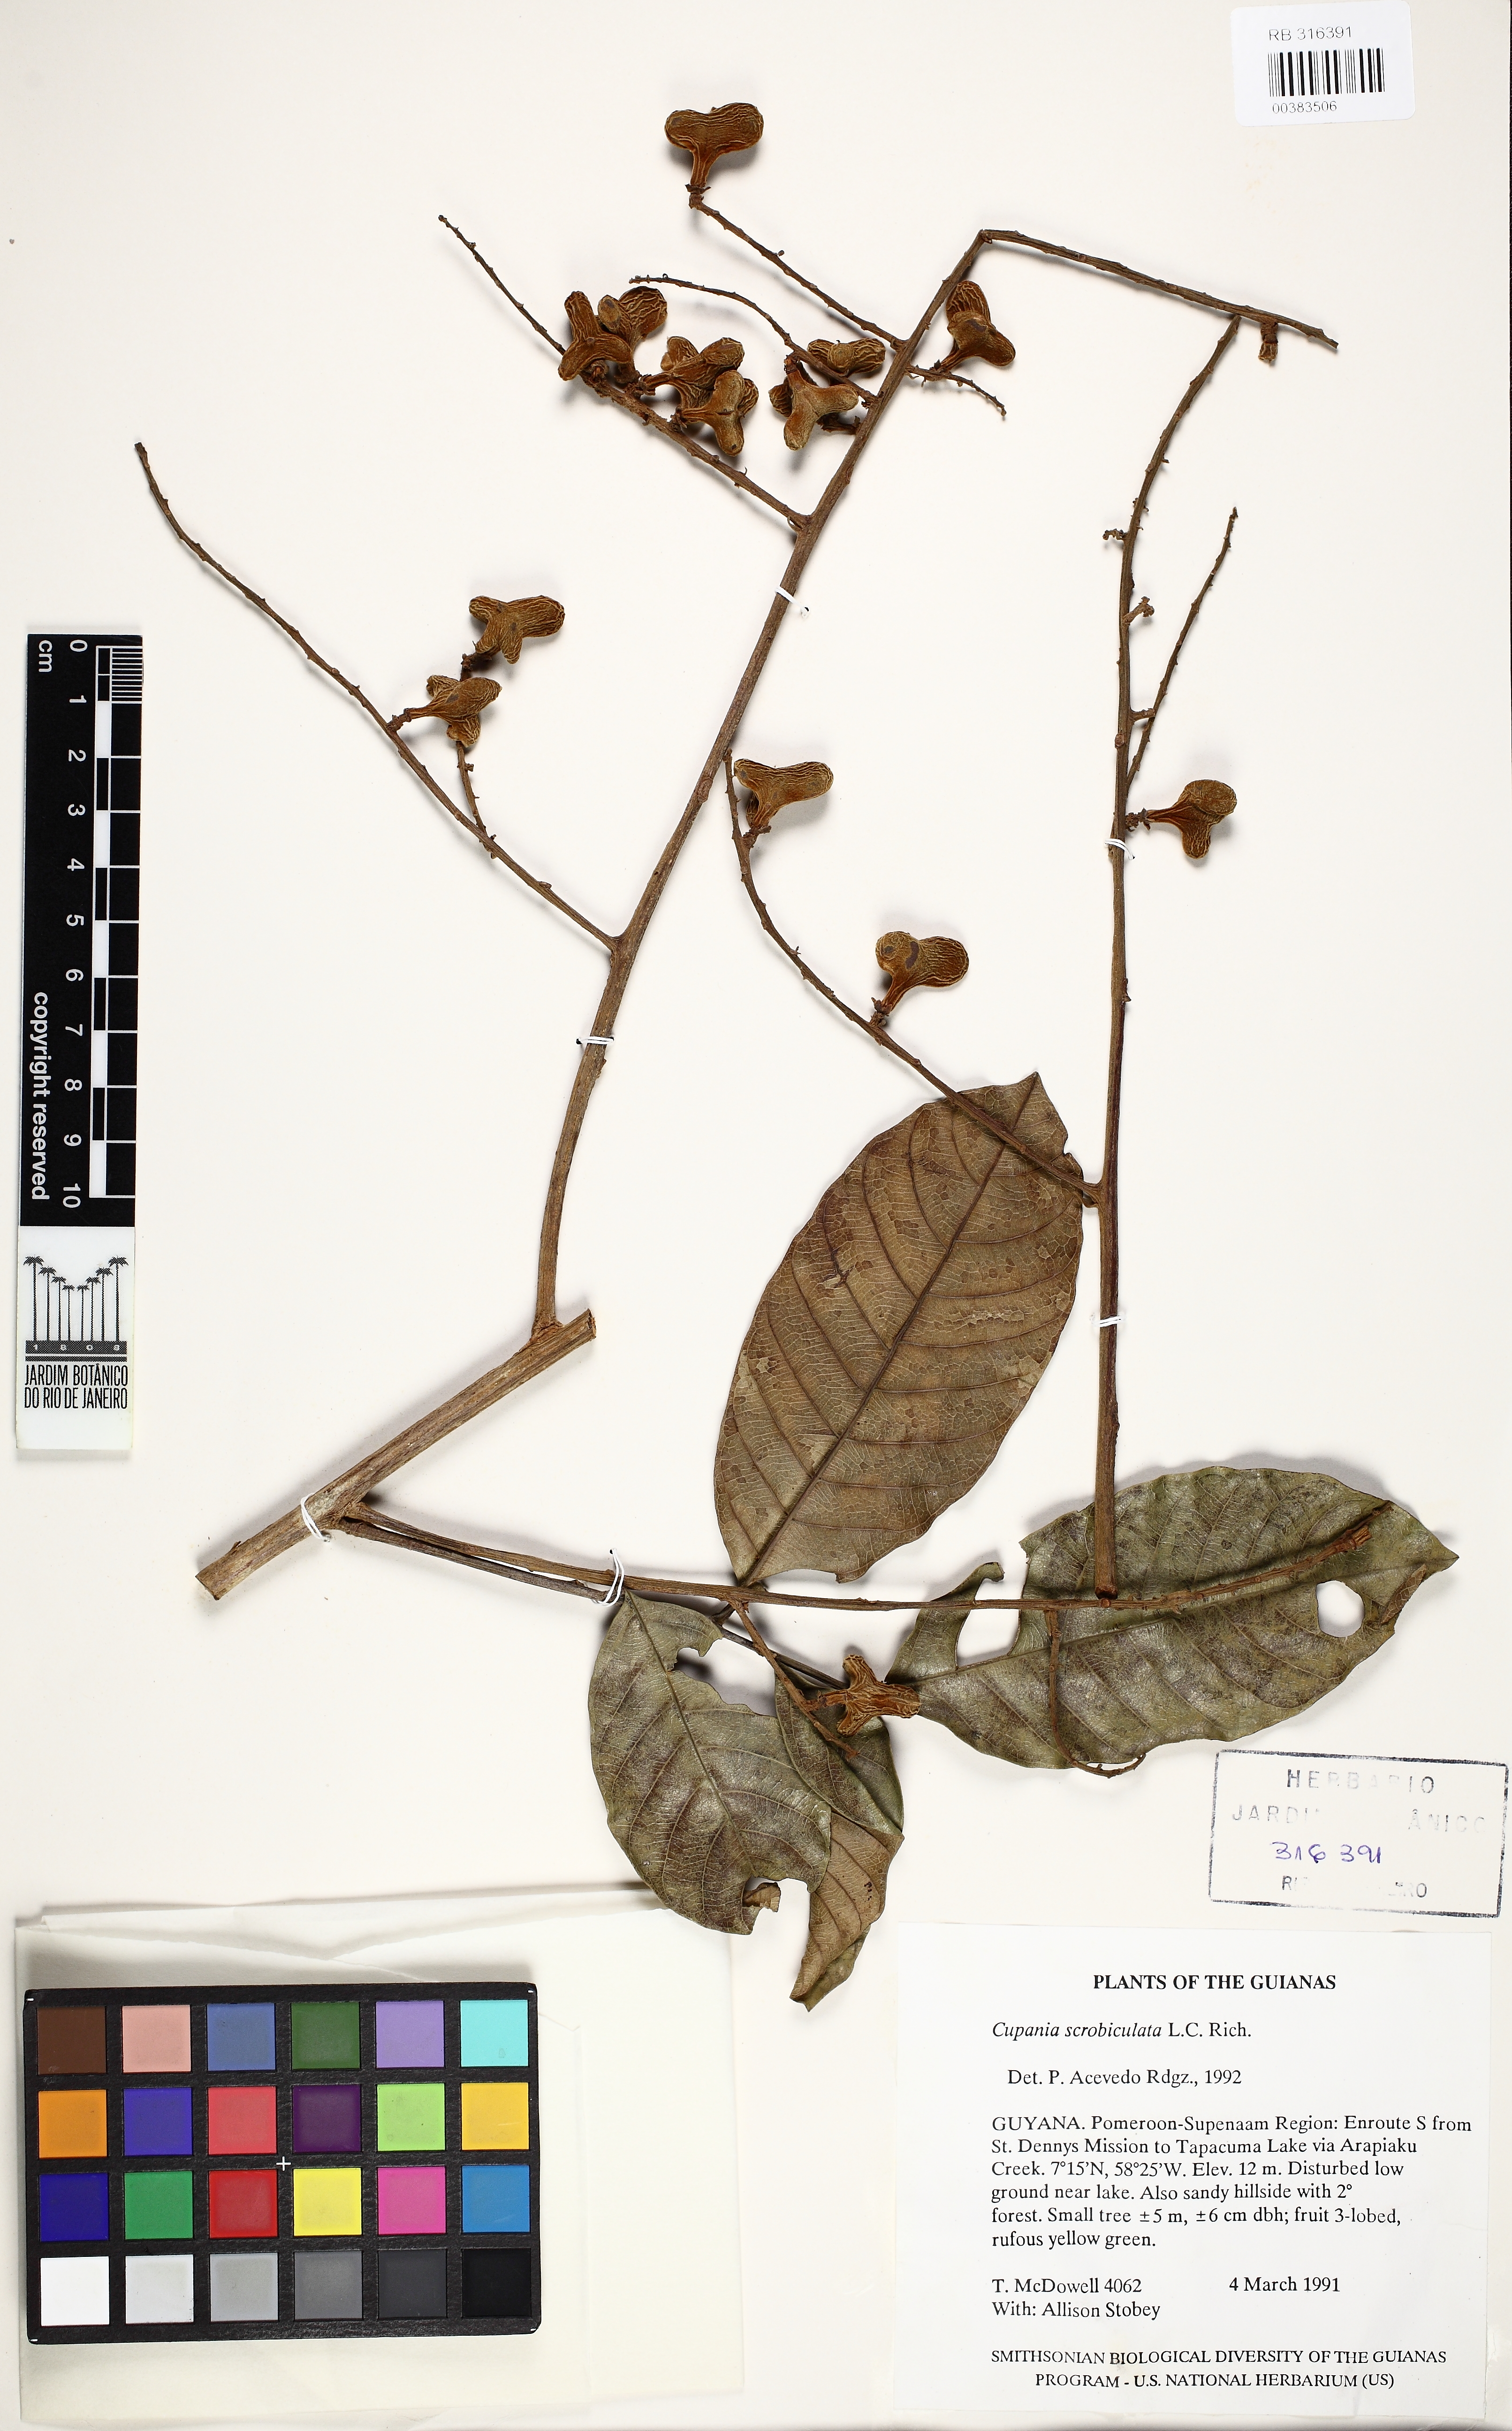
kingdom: Plantae
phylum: Tracheophyta
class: Magnoliopsida
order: Sapindales
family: Sapindaceae
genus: Cupania
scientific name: Cupania scrobiculata
